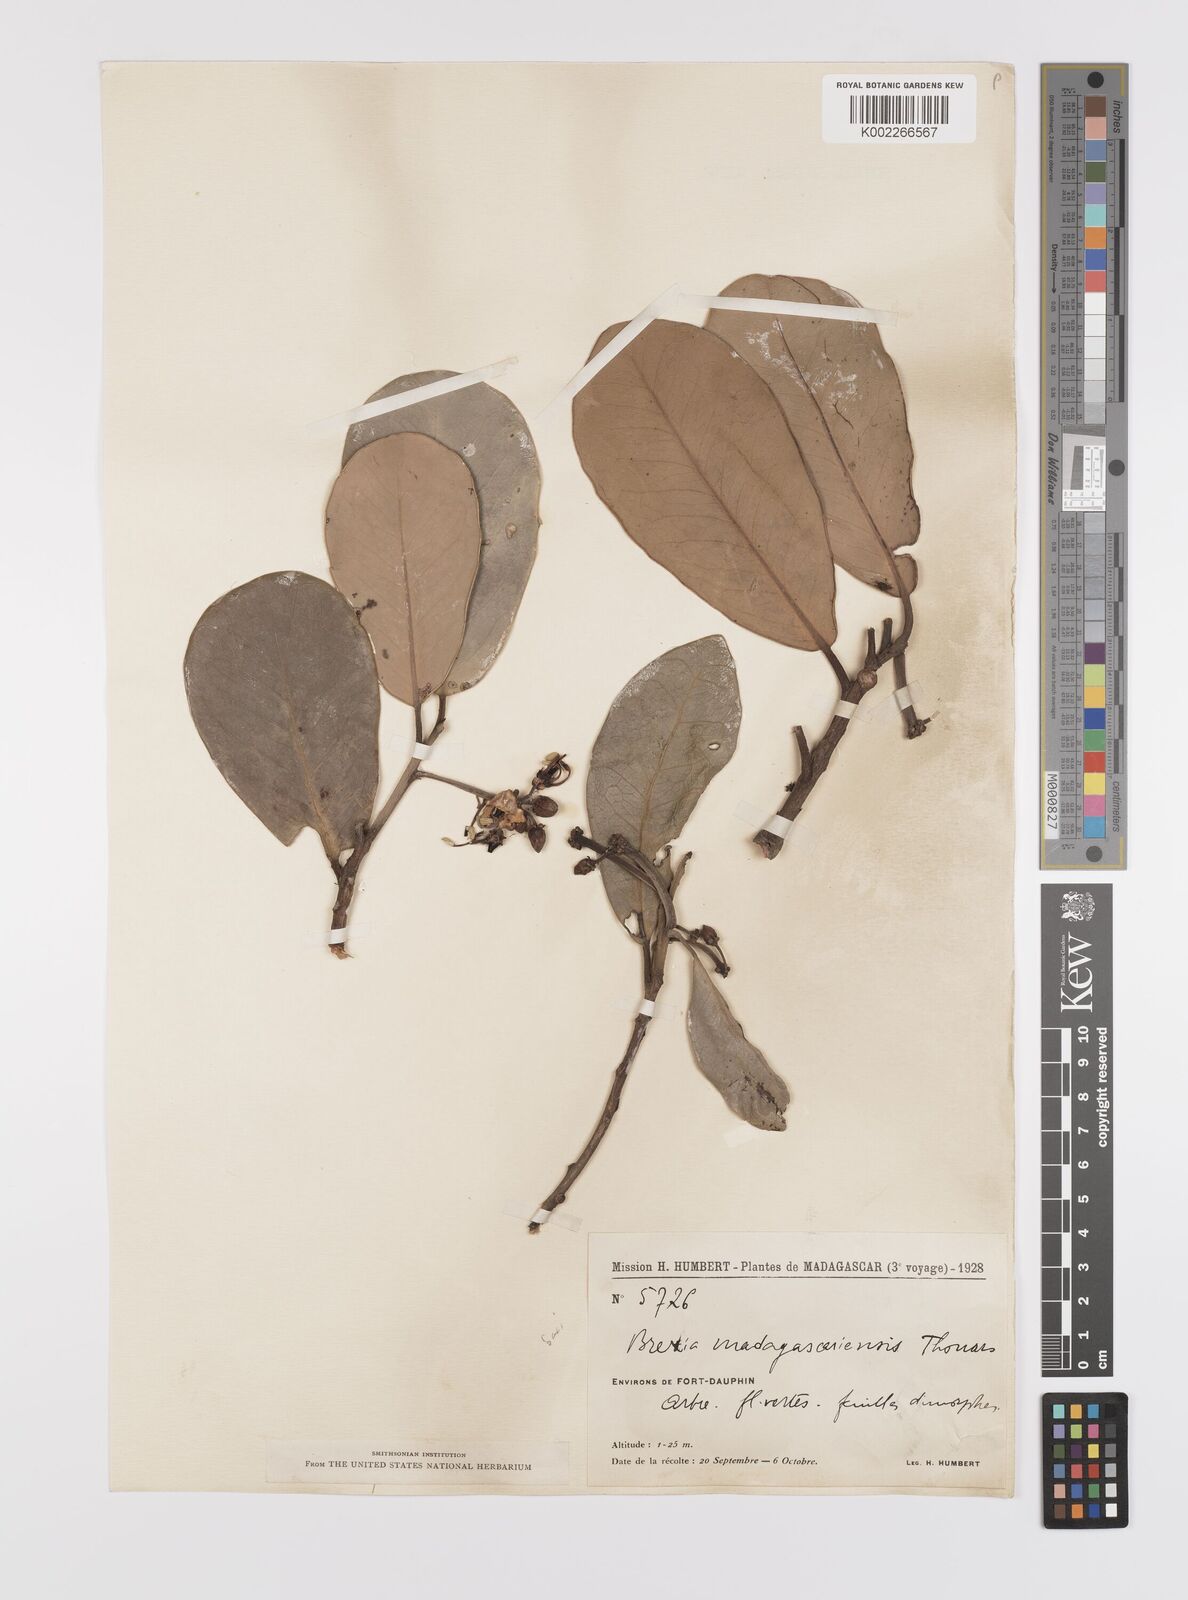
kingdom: Plantae
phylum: Tracheophyta
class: Magnoliopsida
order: Celastrales
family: Celastraceae
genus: Brexia
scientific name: Brexia madagascariensis
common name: Brexia
